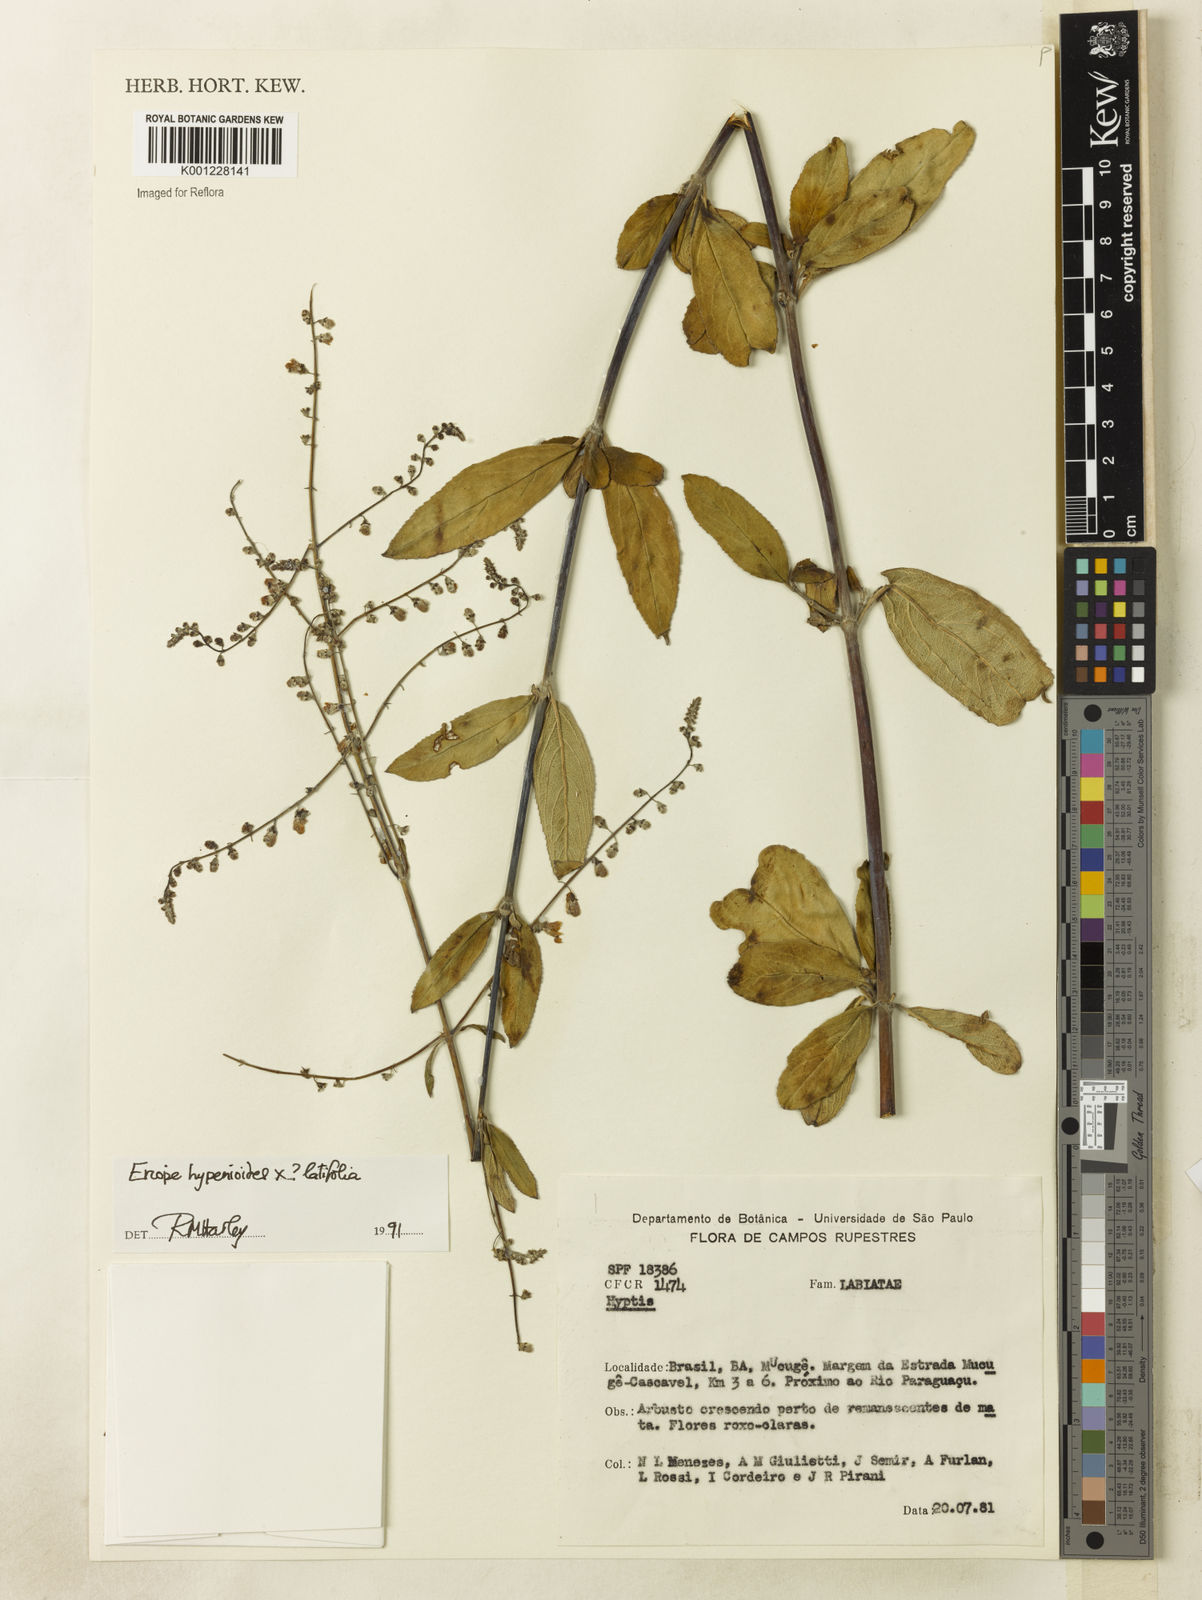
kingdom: Plantae
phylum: Tracheophyta
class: Magnoliopsida
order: Lamiales
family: Lamiaceae
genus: Eriope
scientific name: Eriope
